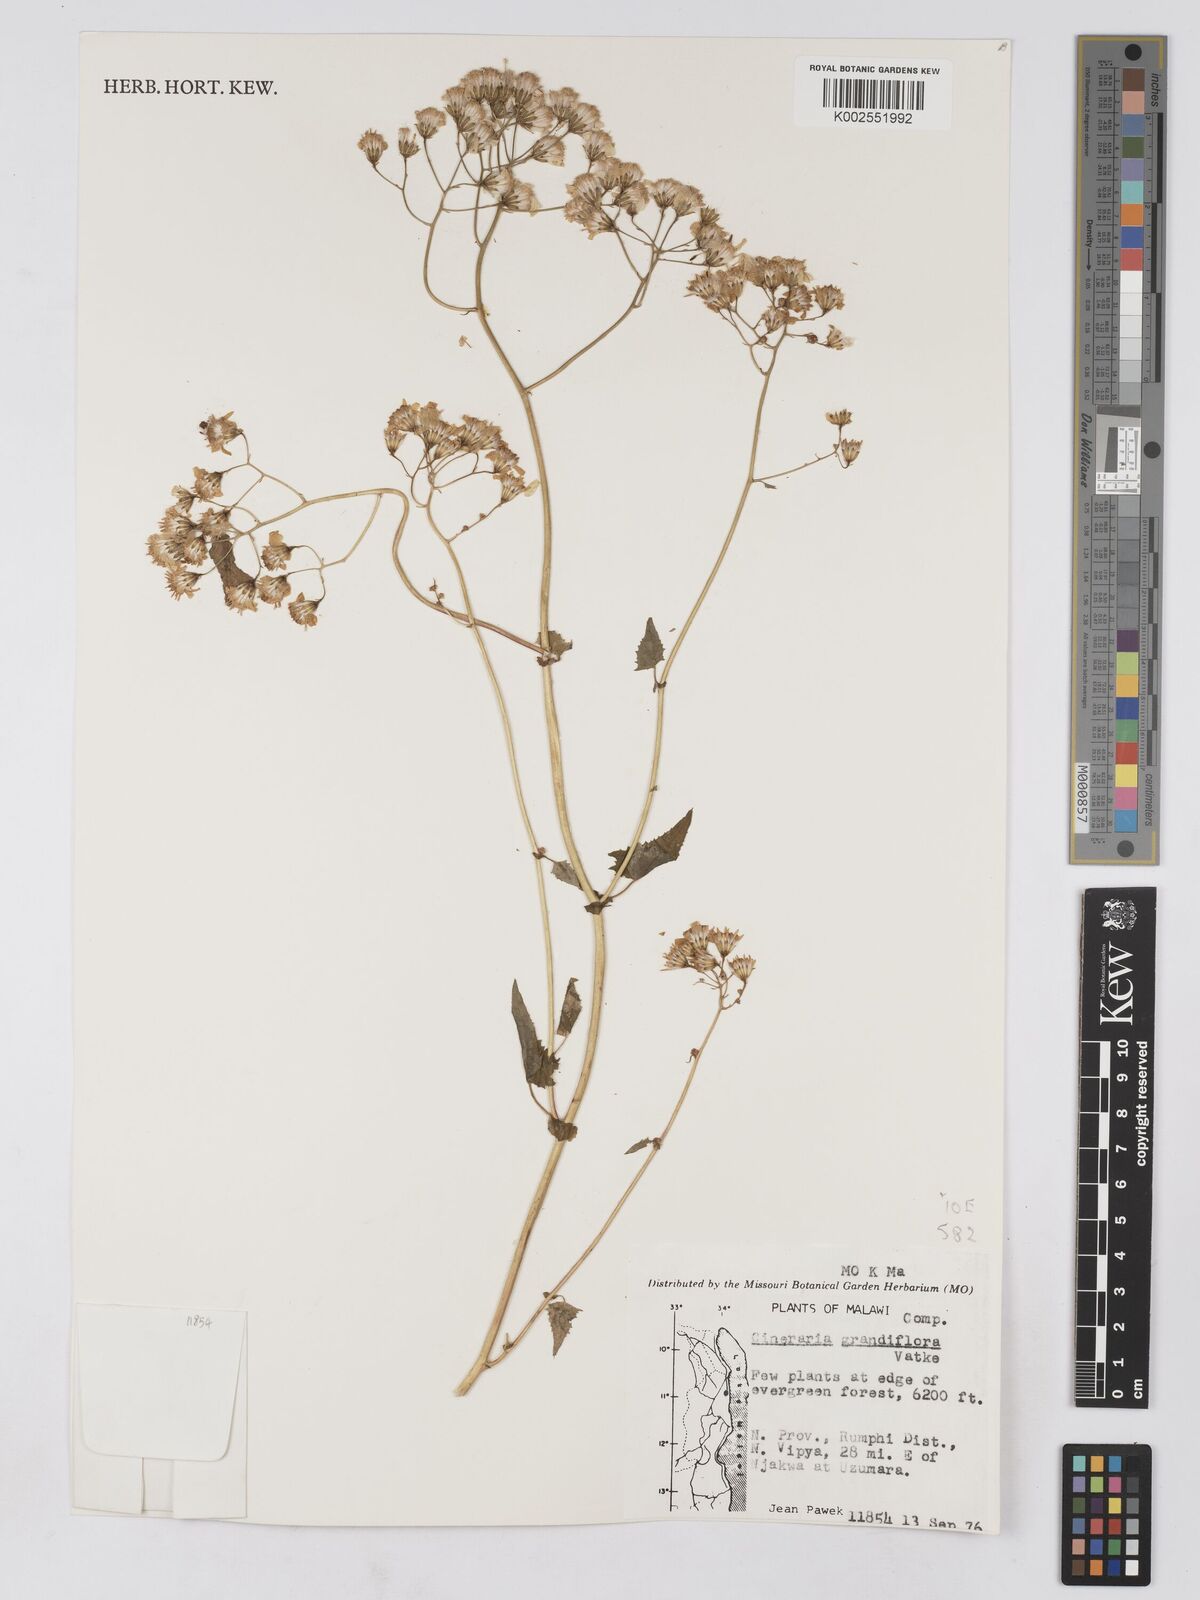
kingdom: Plantae
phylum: Tracheophyta
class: Magnoliopsida
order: Asterales
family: Asteraceae
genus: Cineraria
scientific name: Cineraria deltoidea
